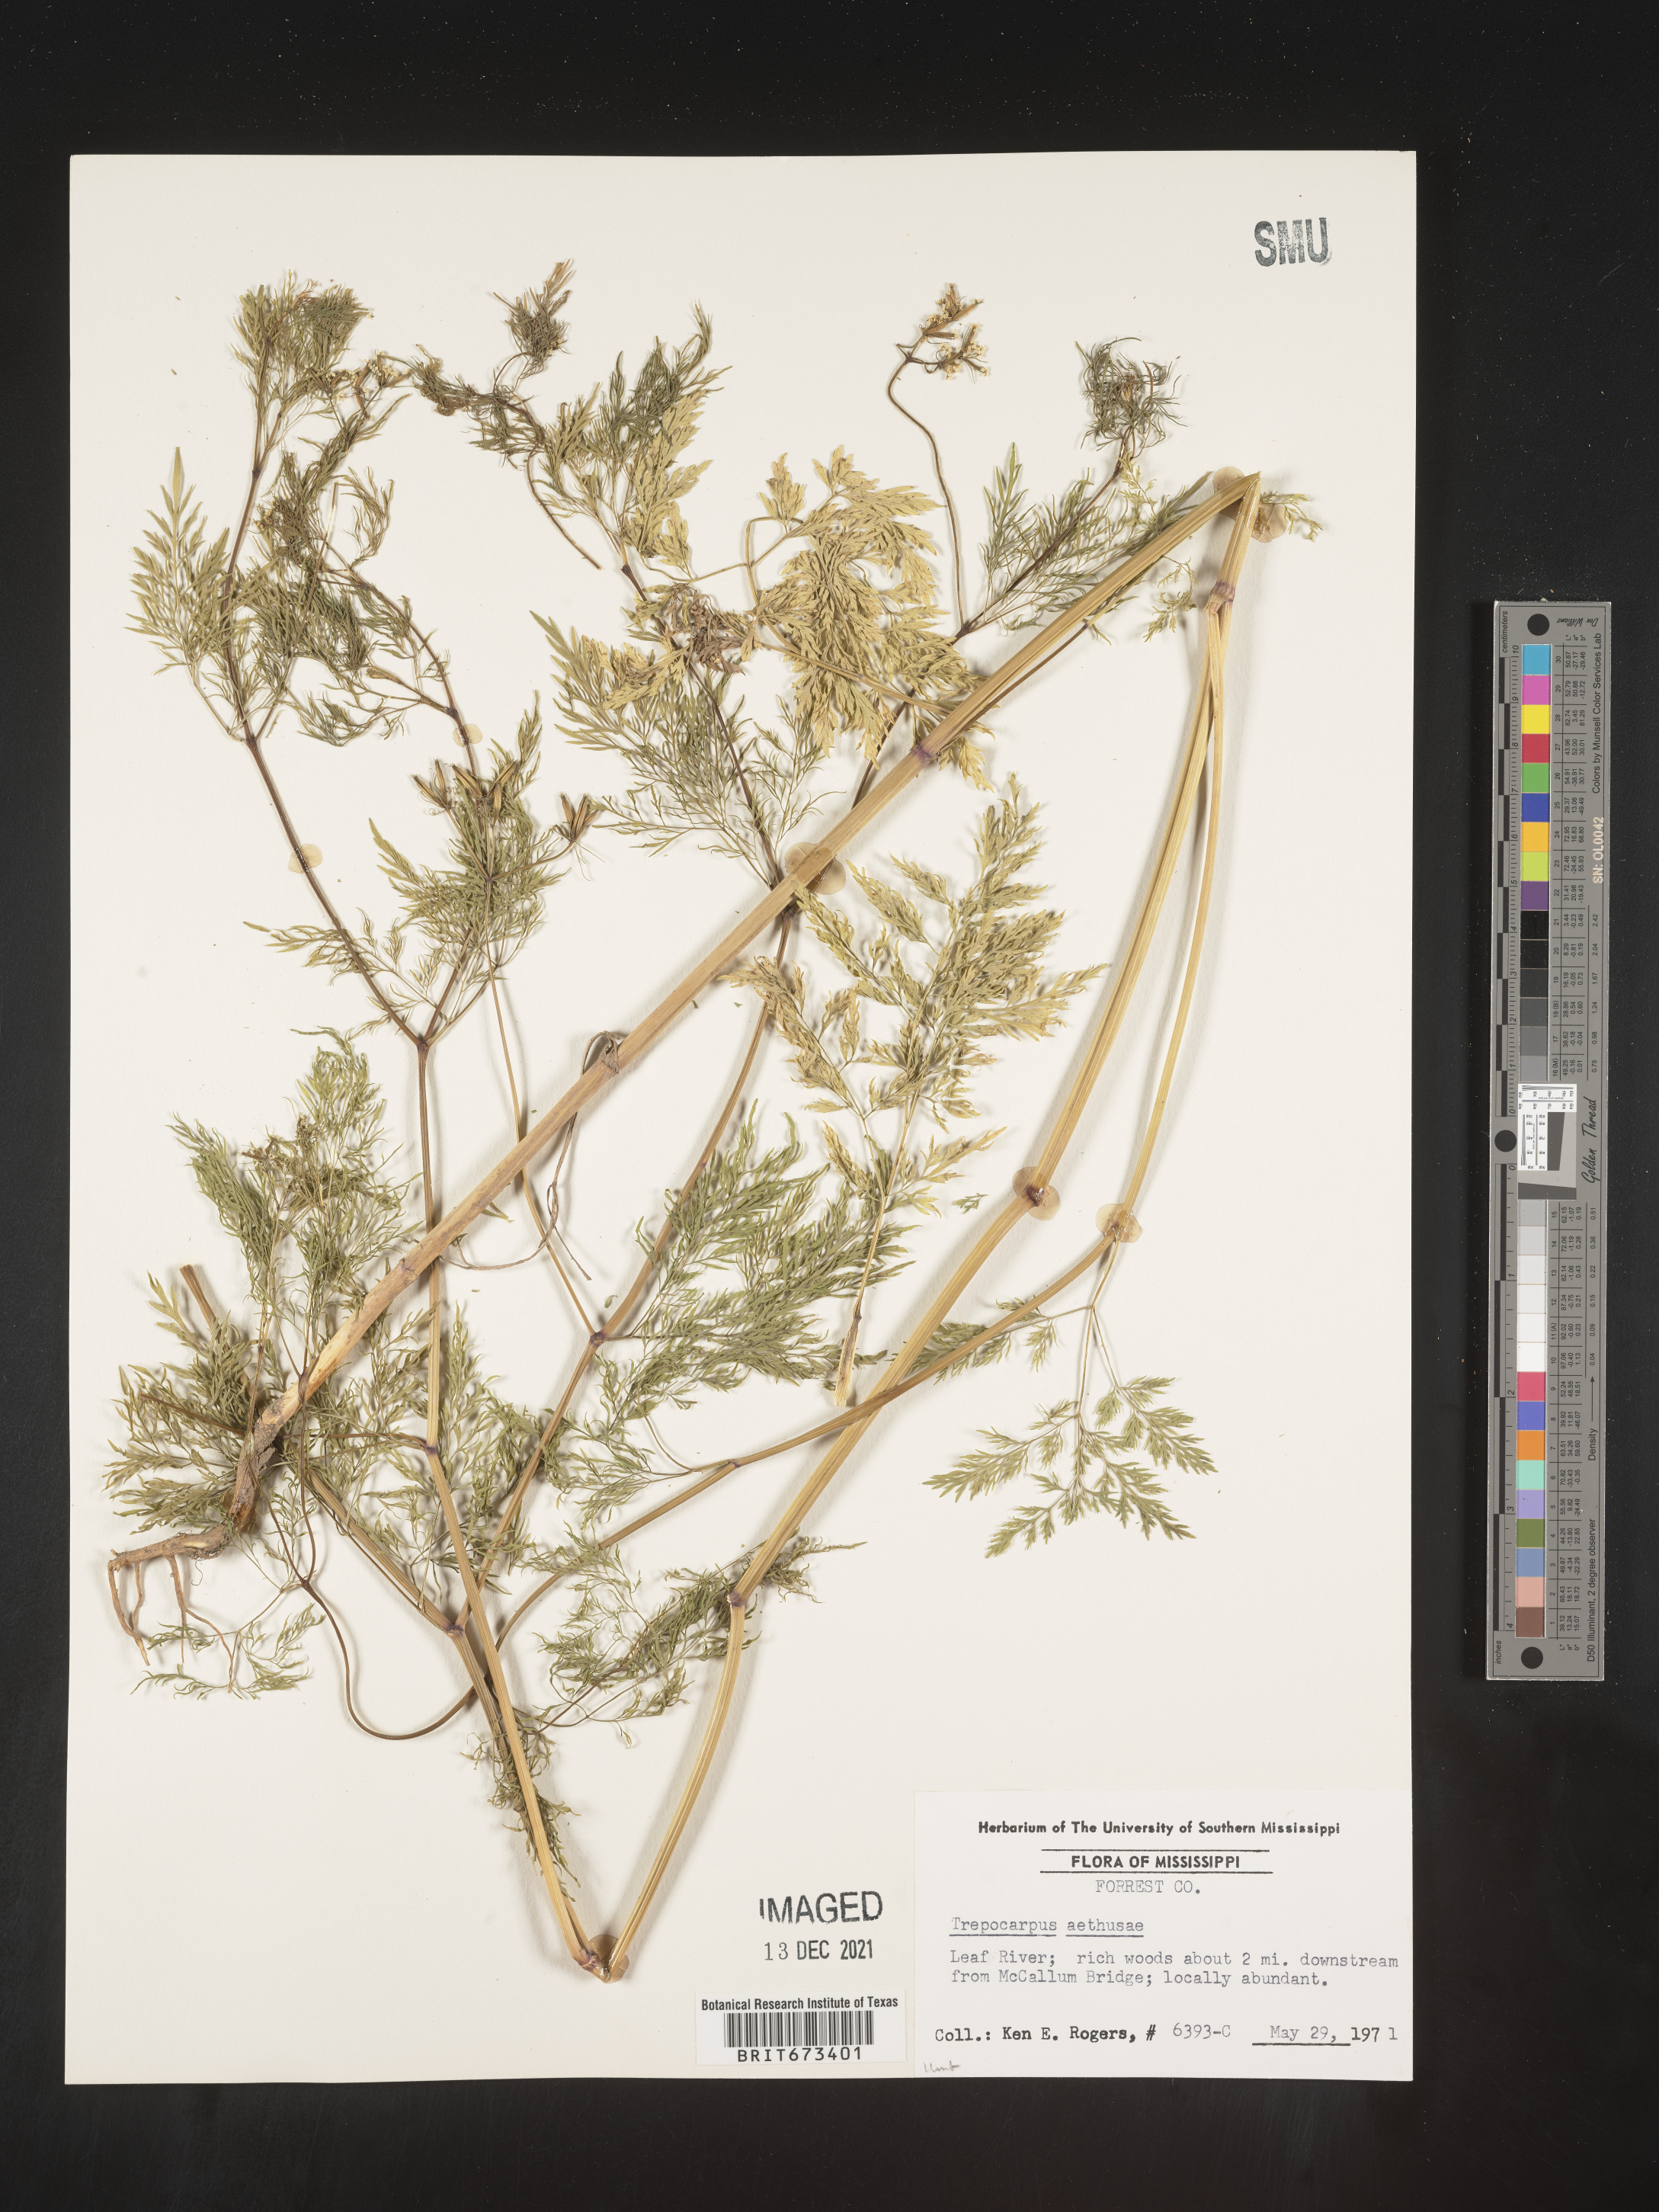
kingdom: Plantae
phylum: Tracheophyta
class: Magnoliopsida
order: Apiales
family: Apiaceae
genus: Trepocarpus
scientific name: Trepocarpus aethusae
